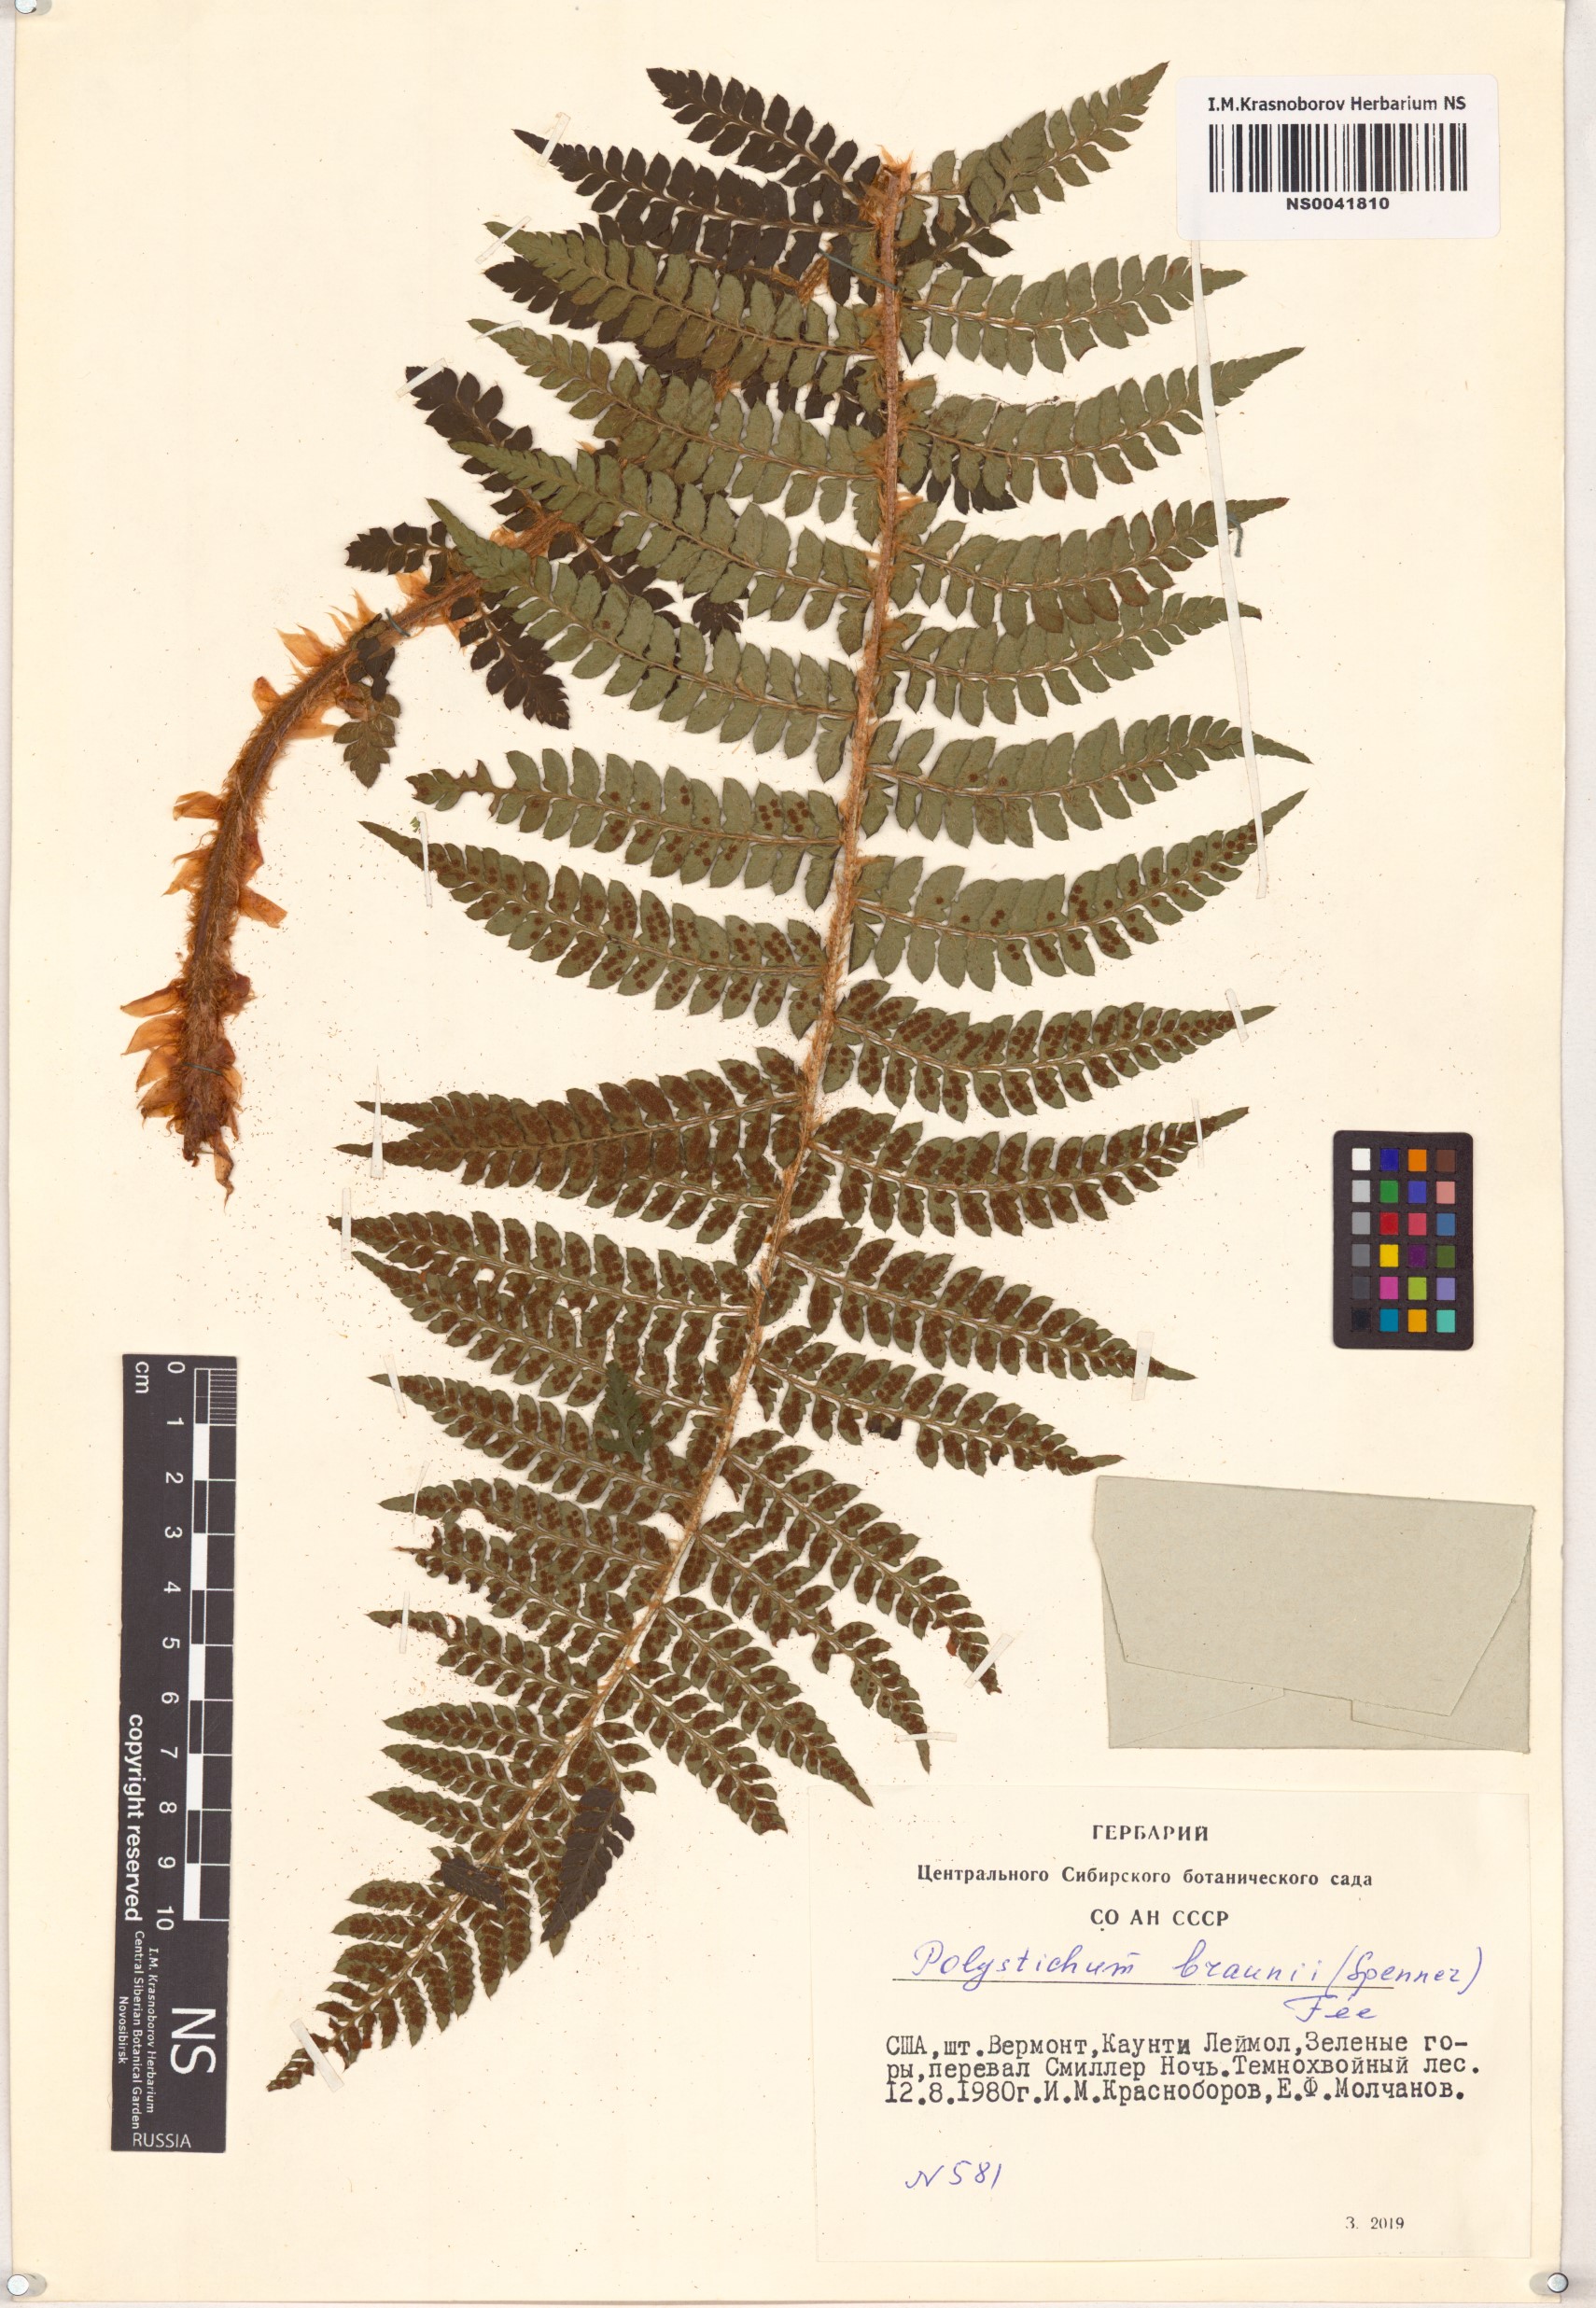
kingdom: Plantae
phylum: Tracheophyta
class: Polypodiopsida
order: Polypodiales
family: Dryopteridaceae
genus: Polystichum
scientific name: Polystichum braunii
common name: Braun's holly fern
